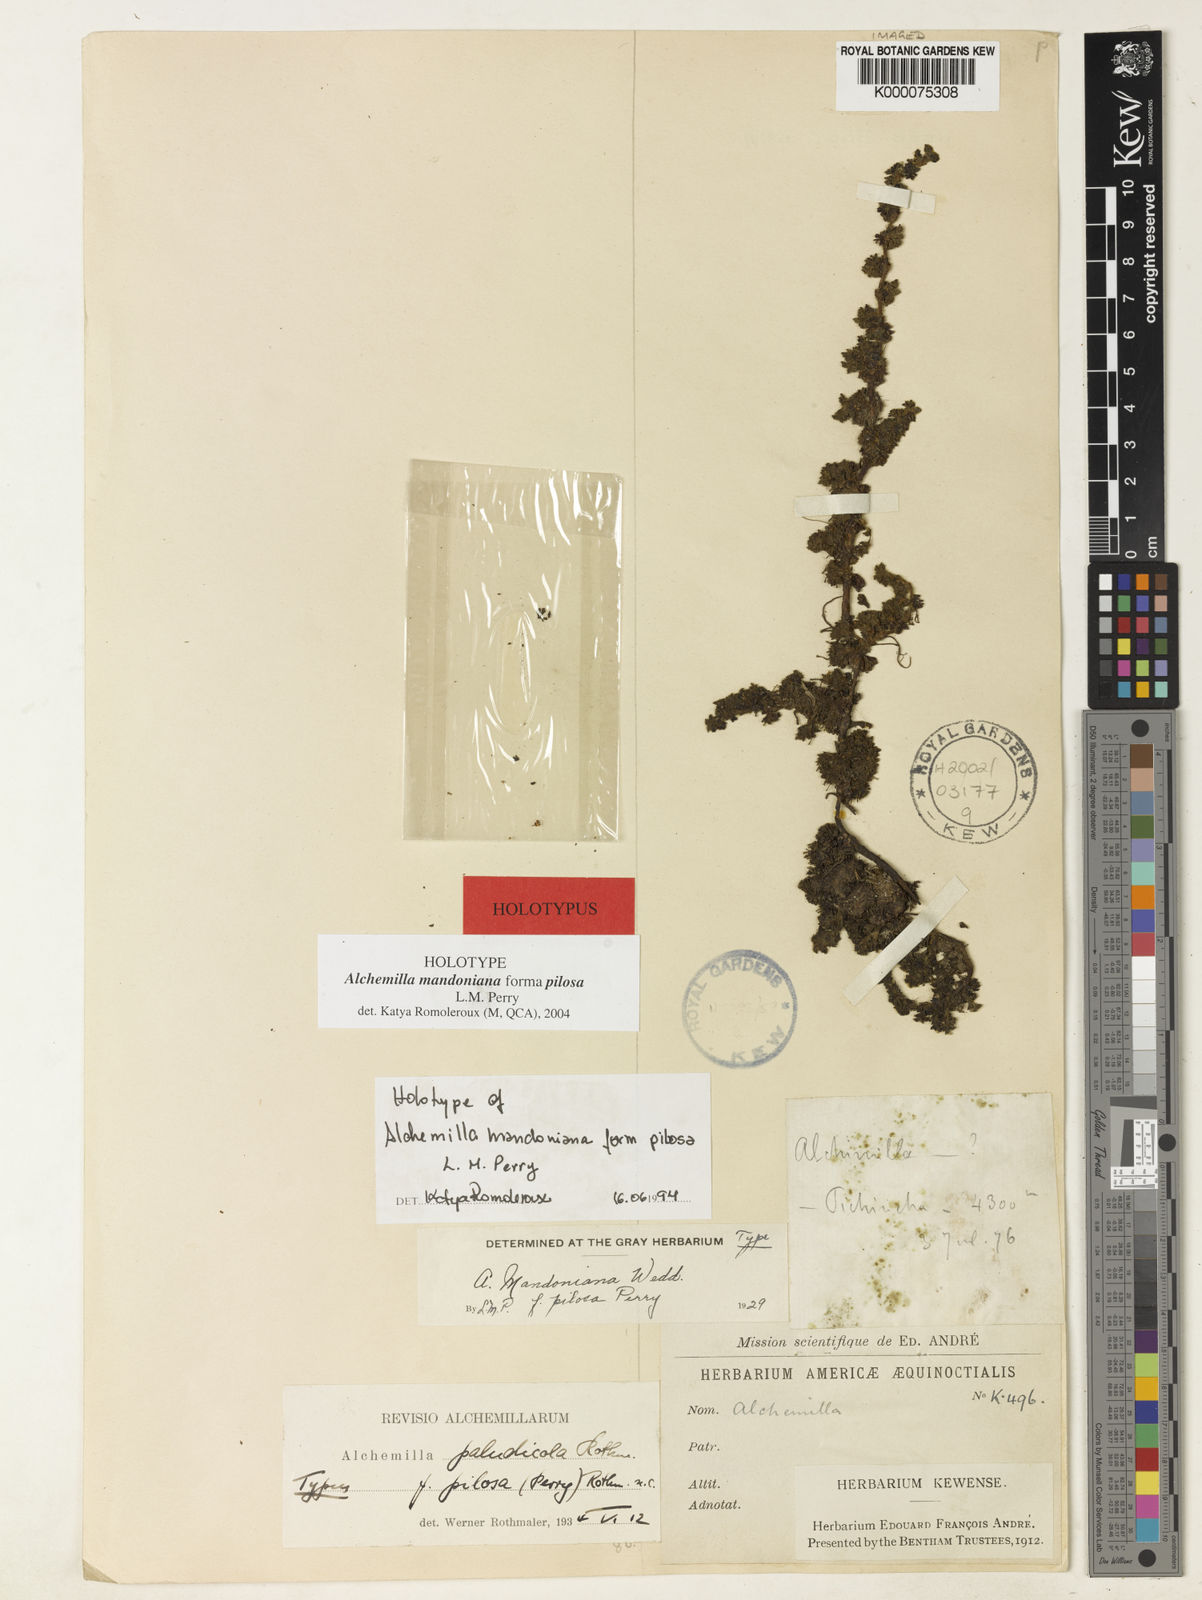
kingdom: Plantae
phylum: Tracheophyta
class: Magnoliopsida
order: Rosales
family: Rosaceae
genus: Lachemilla
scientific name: Lachemilla mandoniana
